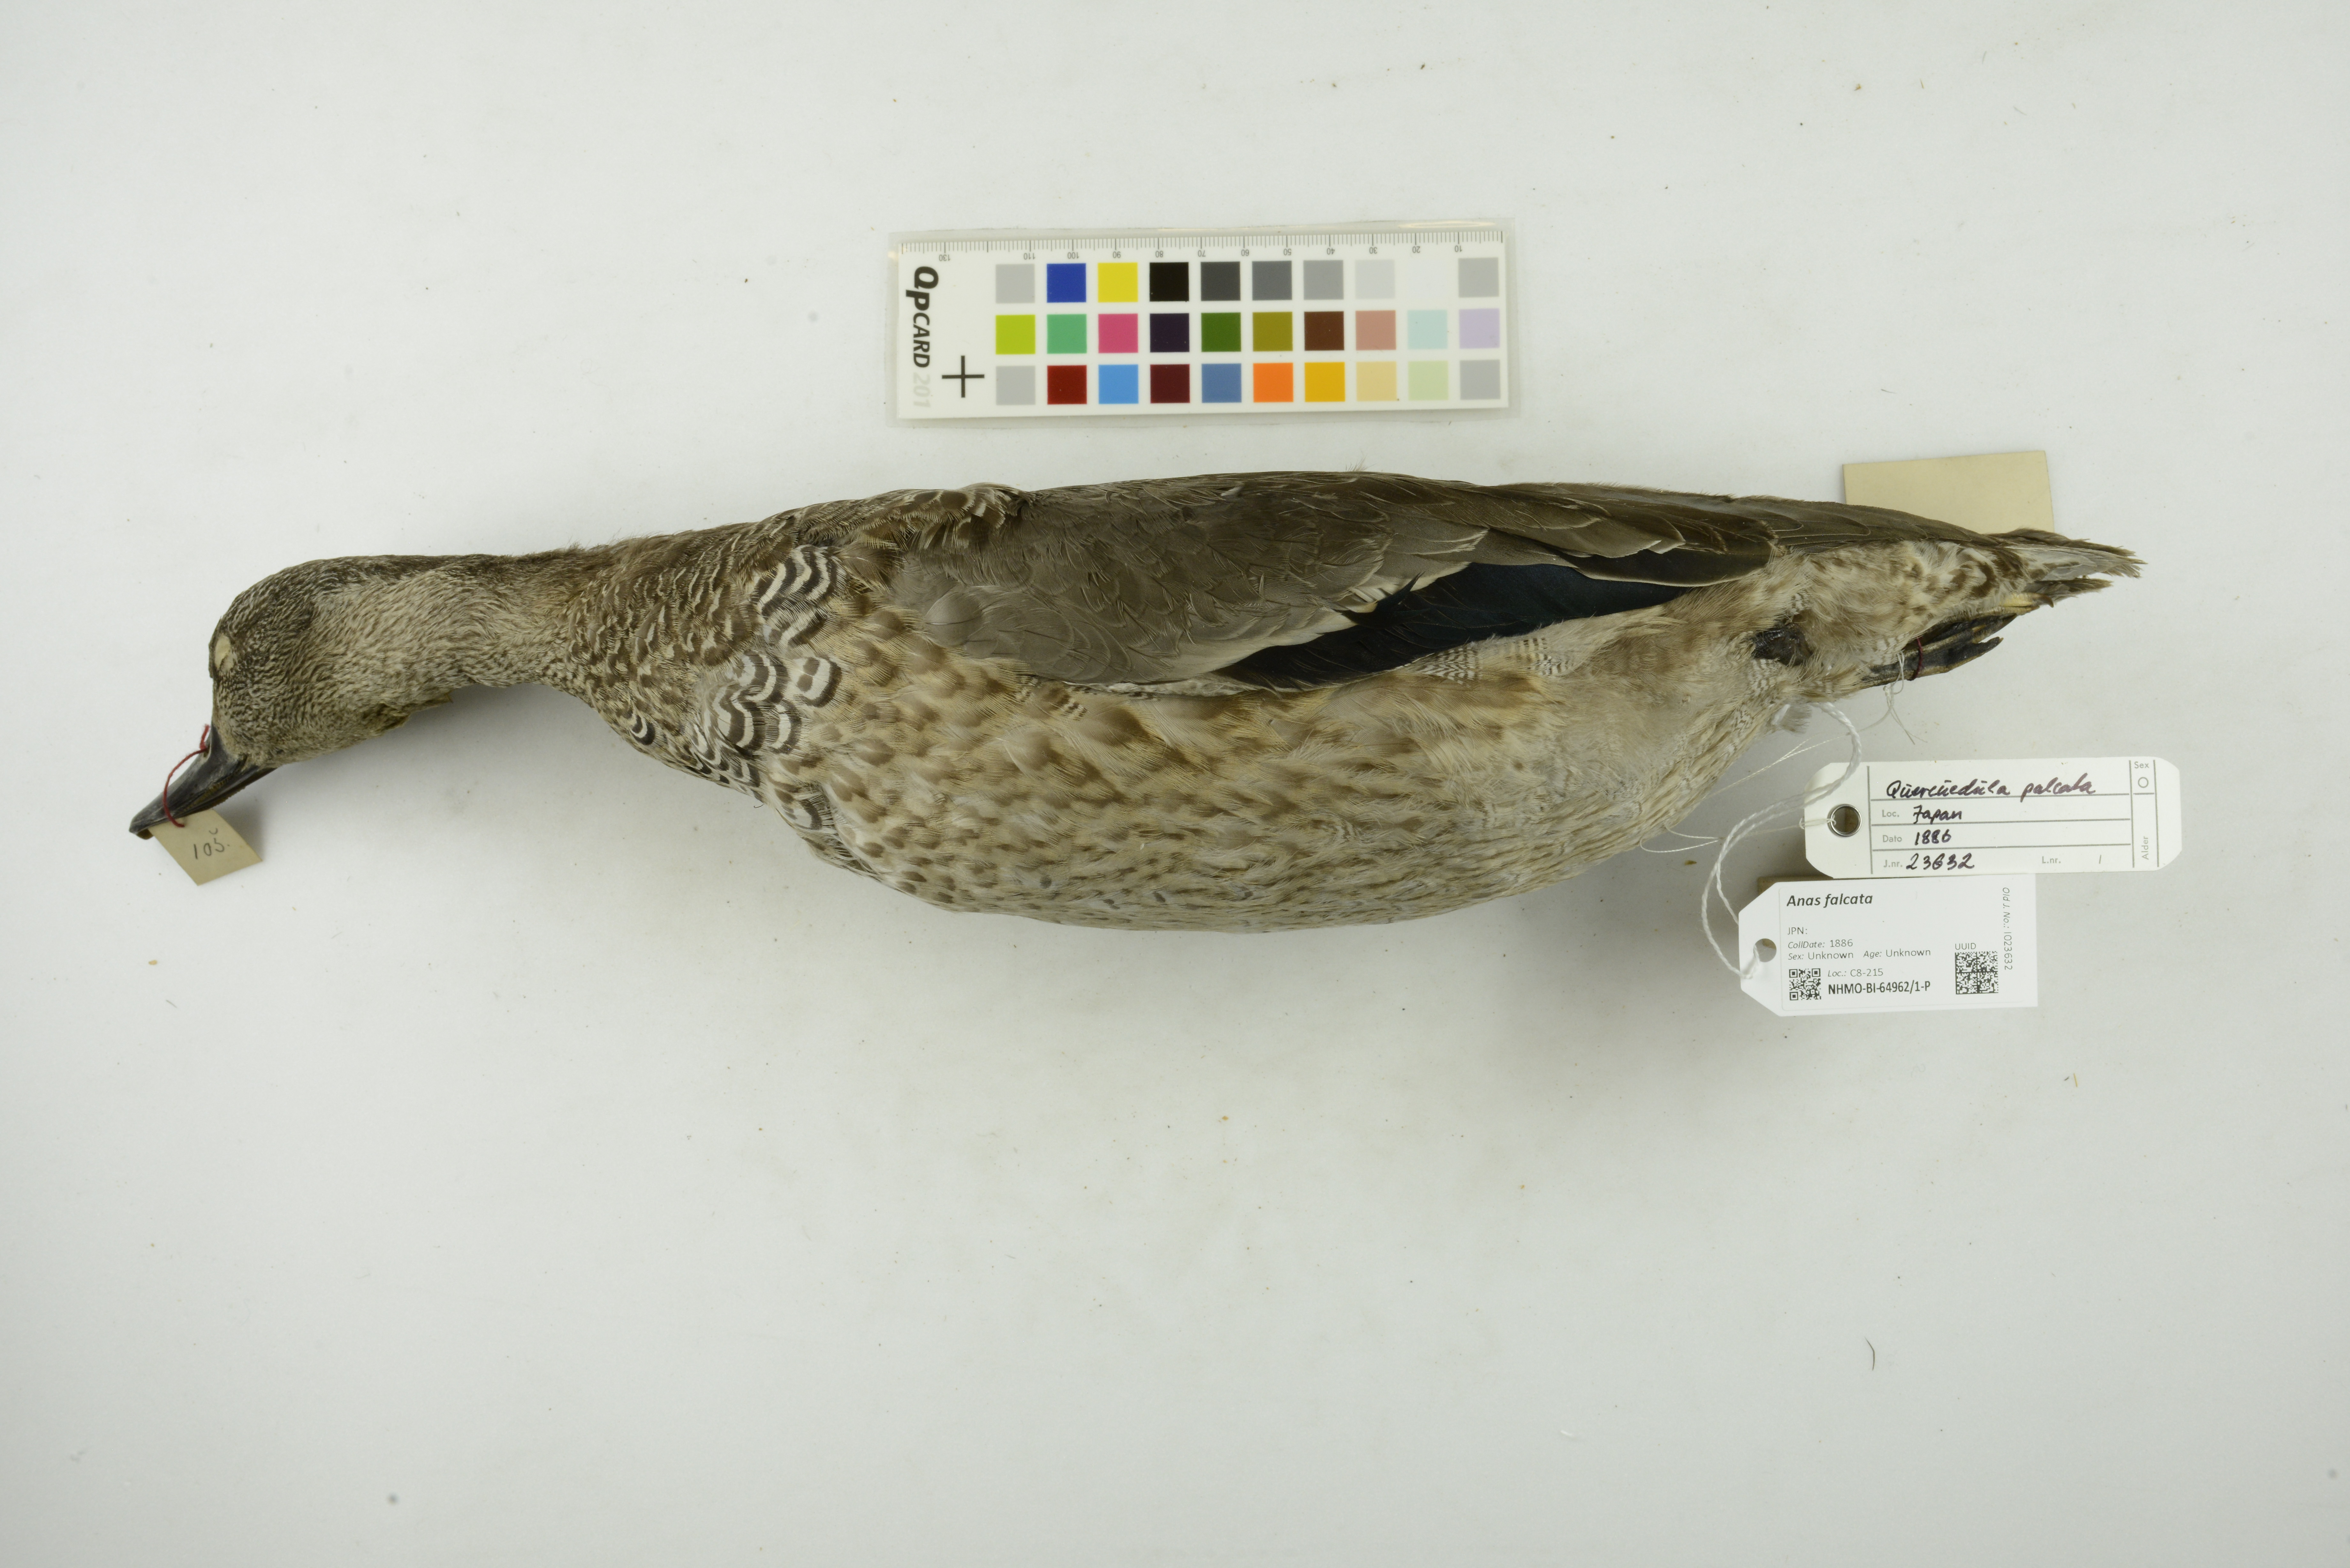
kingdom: Animalia
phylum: Chordata
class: Aves
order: Anseriformes
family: Anatidae
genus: Mareca
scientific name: Mareca falcata
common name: Falcated duck
